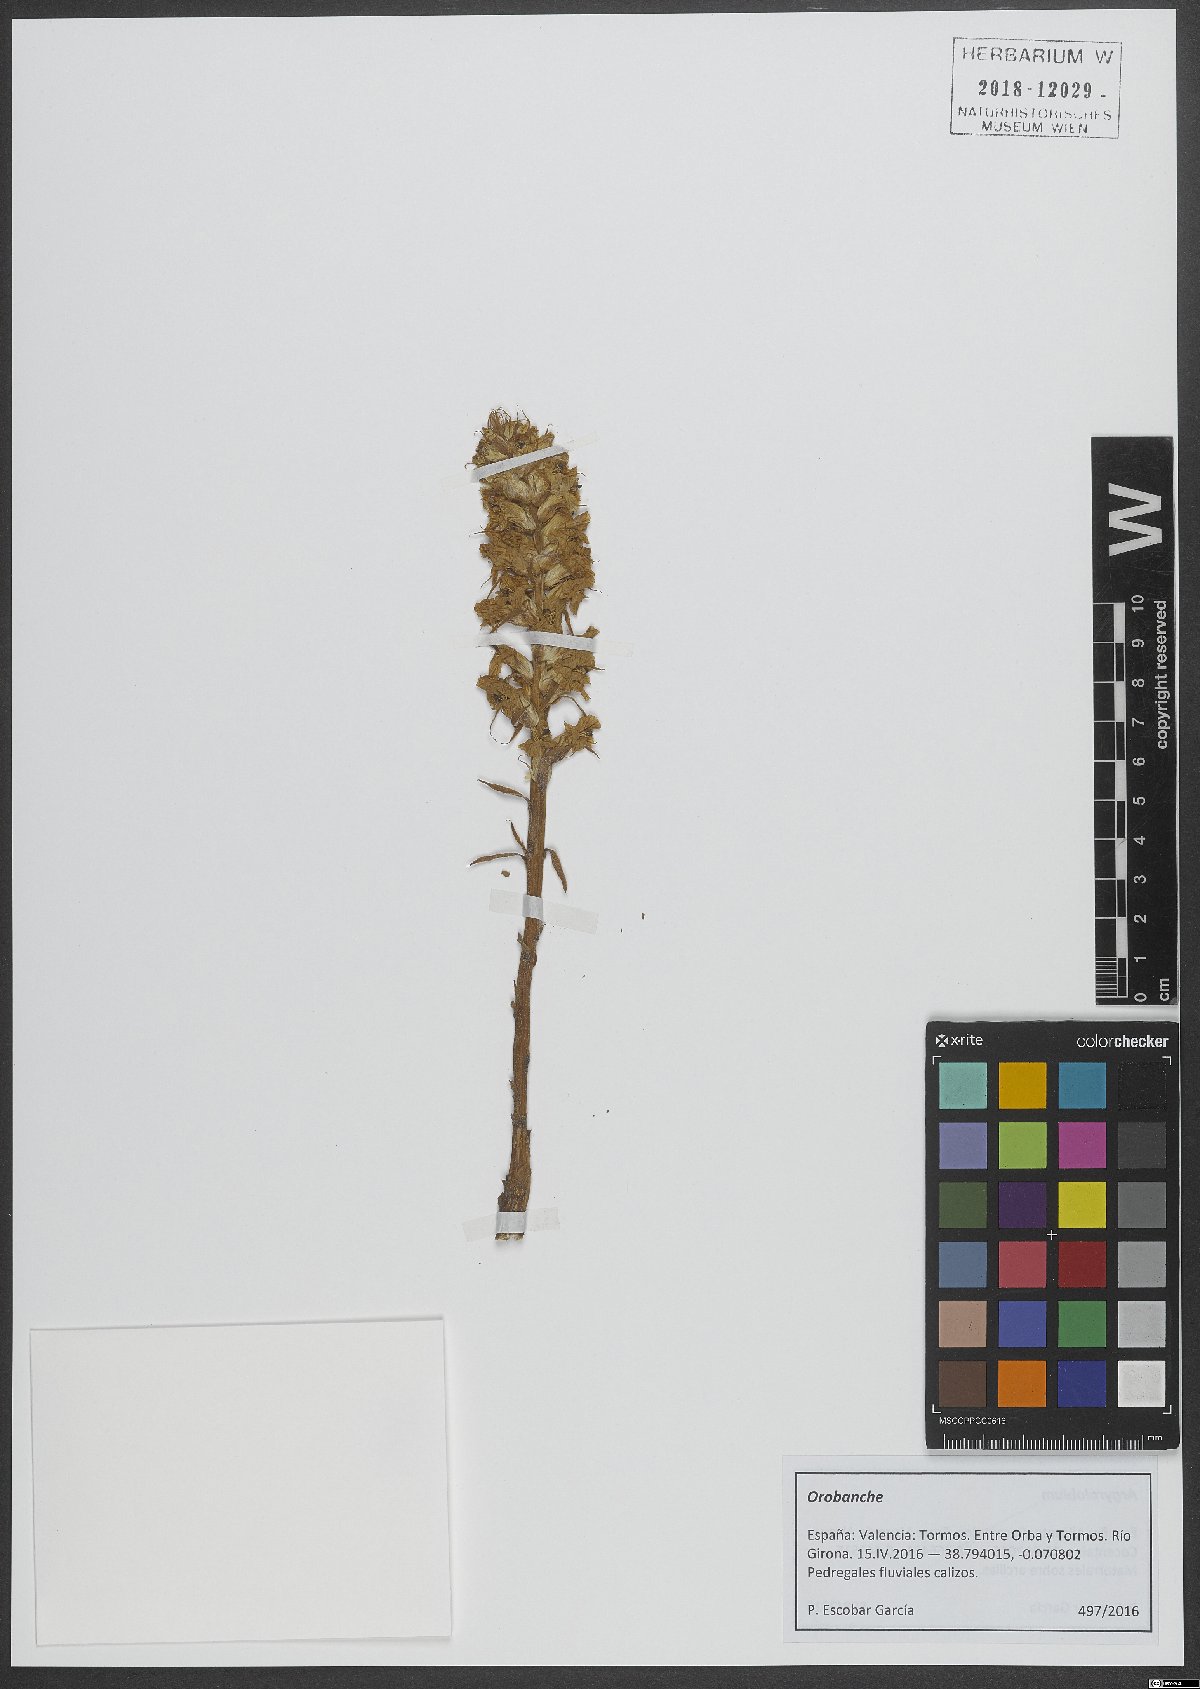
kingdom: Plantae
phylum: Tracheophyta
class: Magnoliopsida
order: Lamiales
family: Orobanchaceae
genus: Orobanche
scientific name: Orobanche
